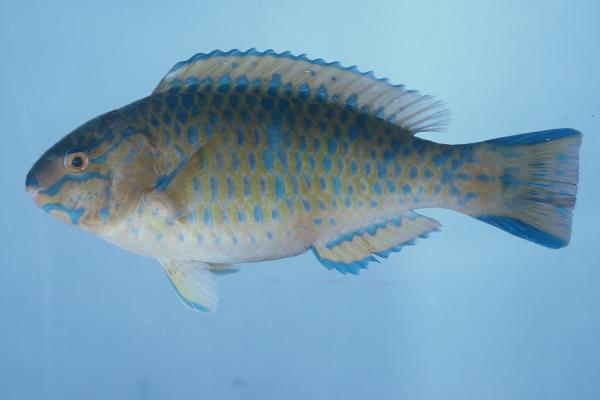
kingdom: Animalia
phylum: Chordata
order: Perciformes
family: Scaridae
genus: Scarus
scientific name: Scarus ghobban
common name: Blue-barred parrotfish
